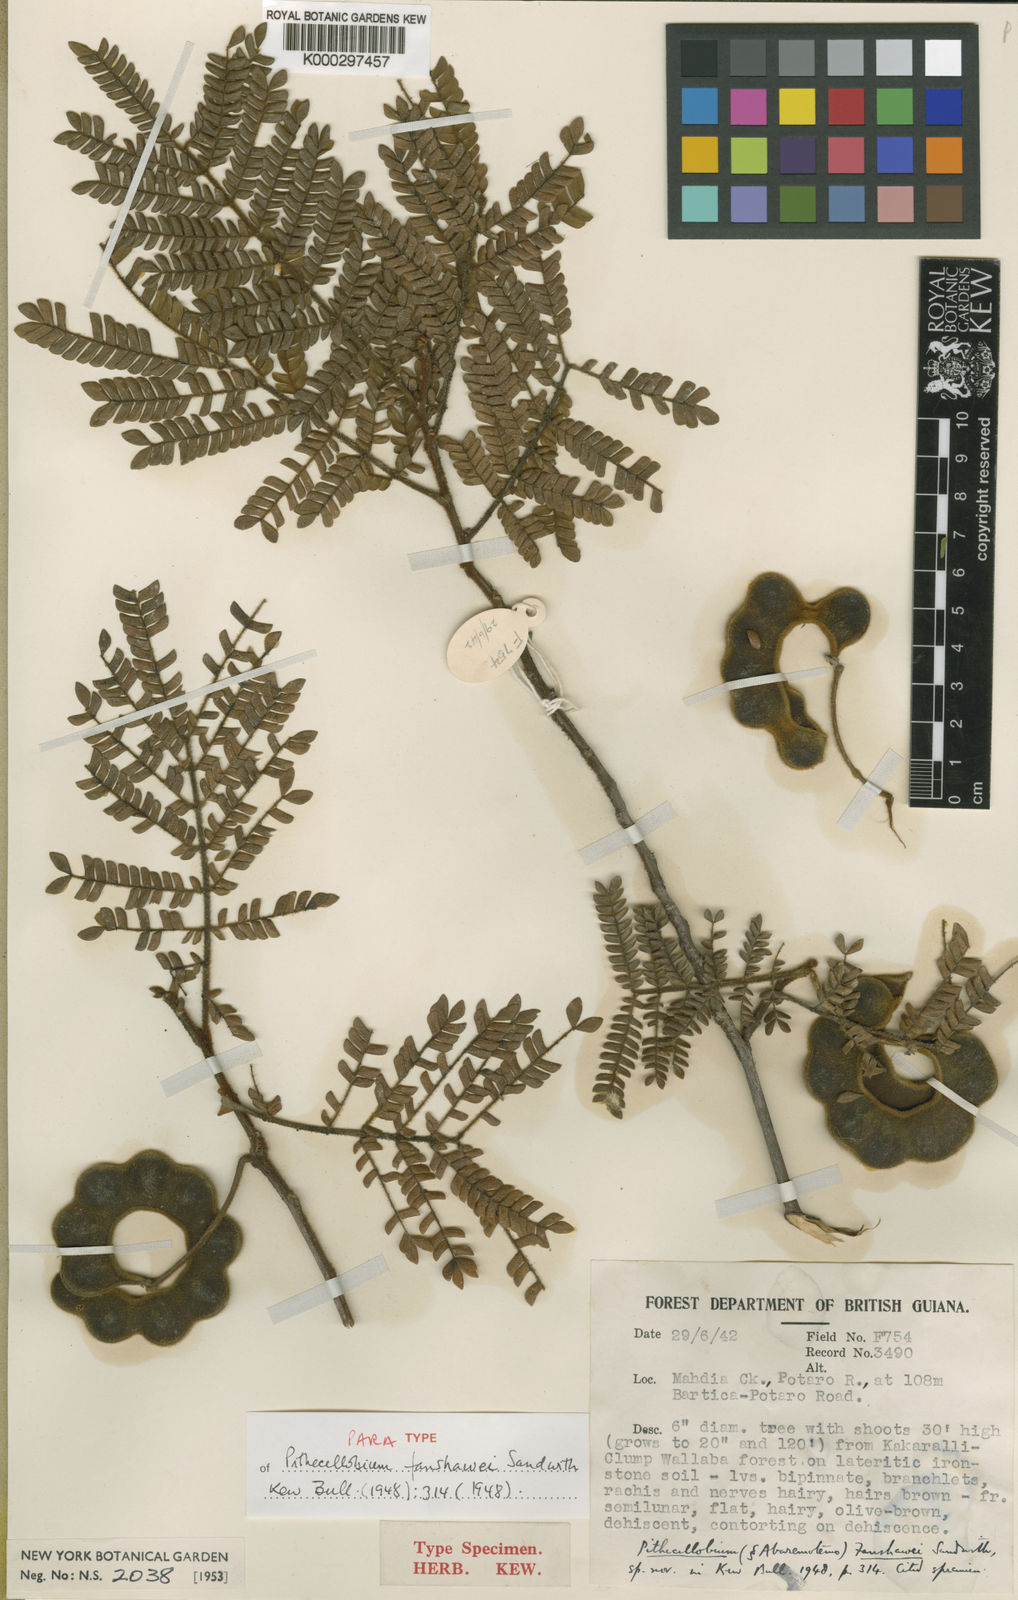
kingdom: Plantae
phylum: Tracheophyta
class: Magnoliopsida
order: Fabales
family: Fabaceae
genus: Jupunba
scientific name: Jupunba barbouriana
